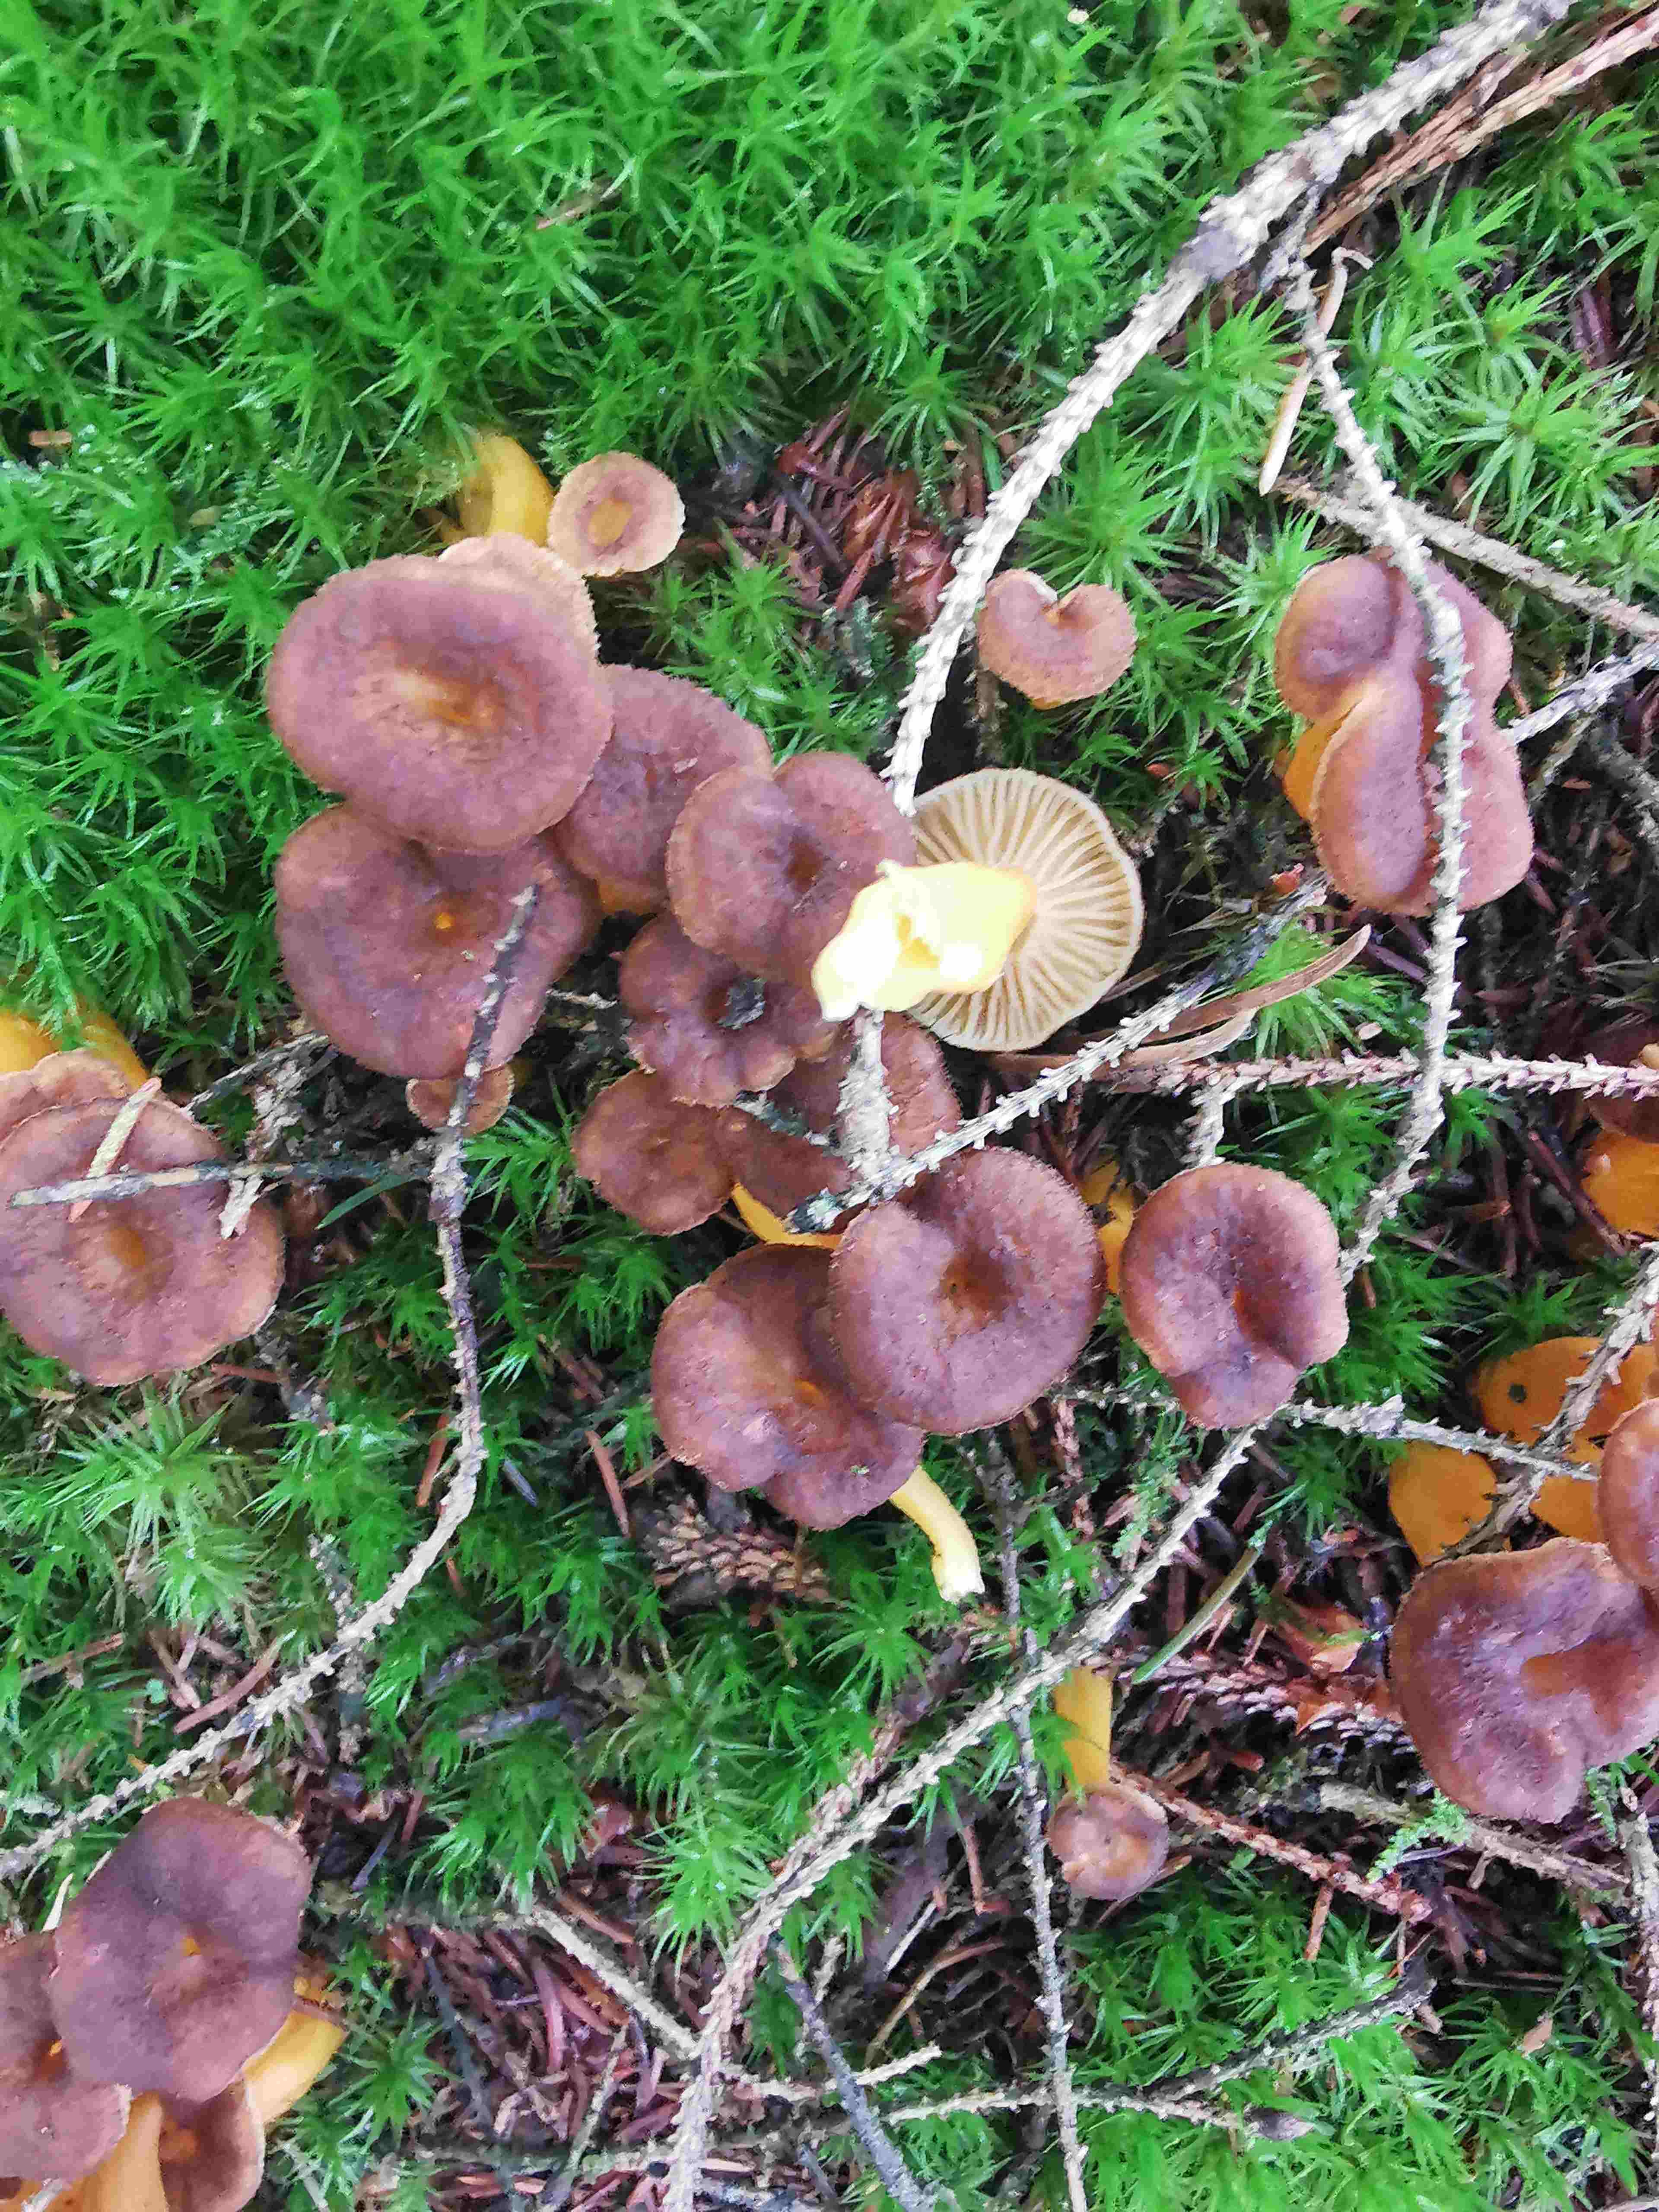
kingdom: Fungi
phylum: Basidiomycota
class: Agaricomycetes
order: Cantharellales
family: Hydnaceae
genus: Craterellus
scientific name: Craterellus tubaeformis
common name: tragt-kantarel
